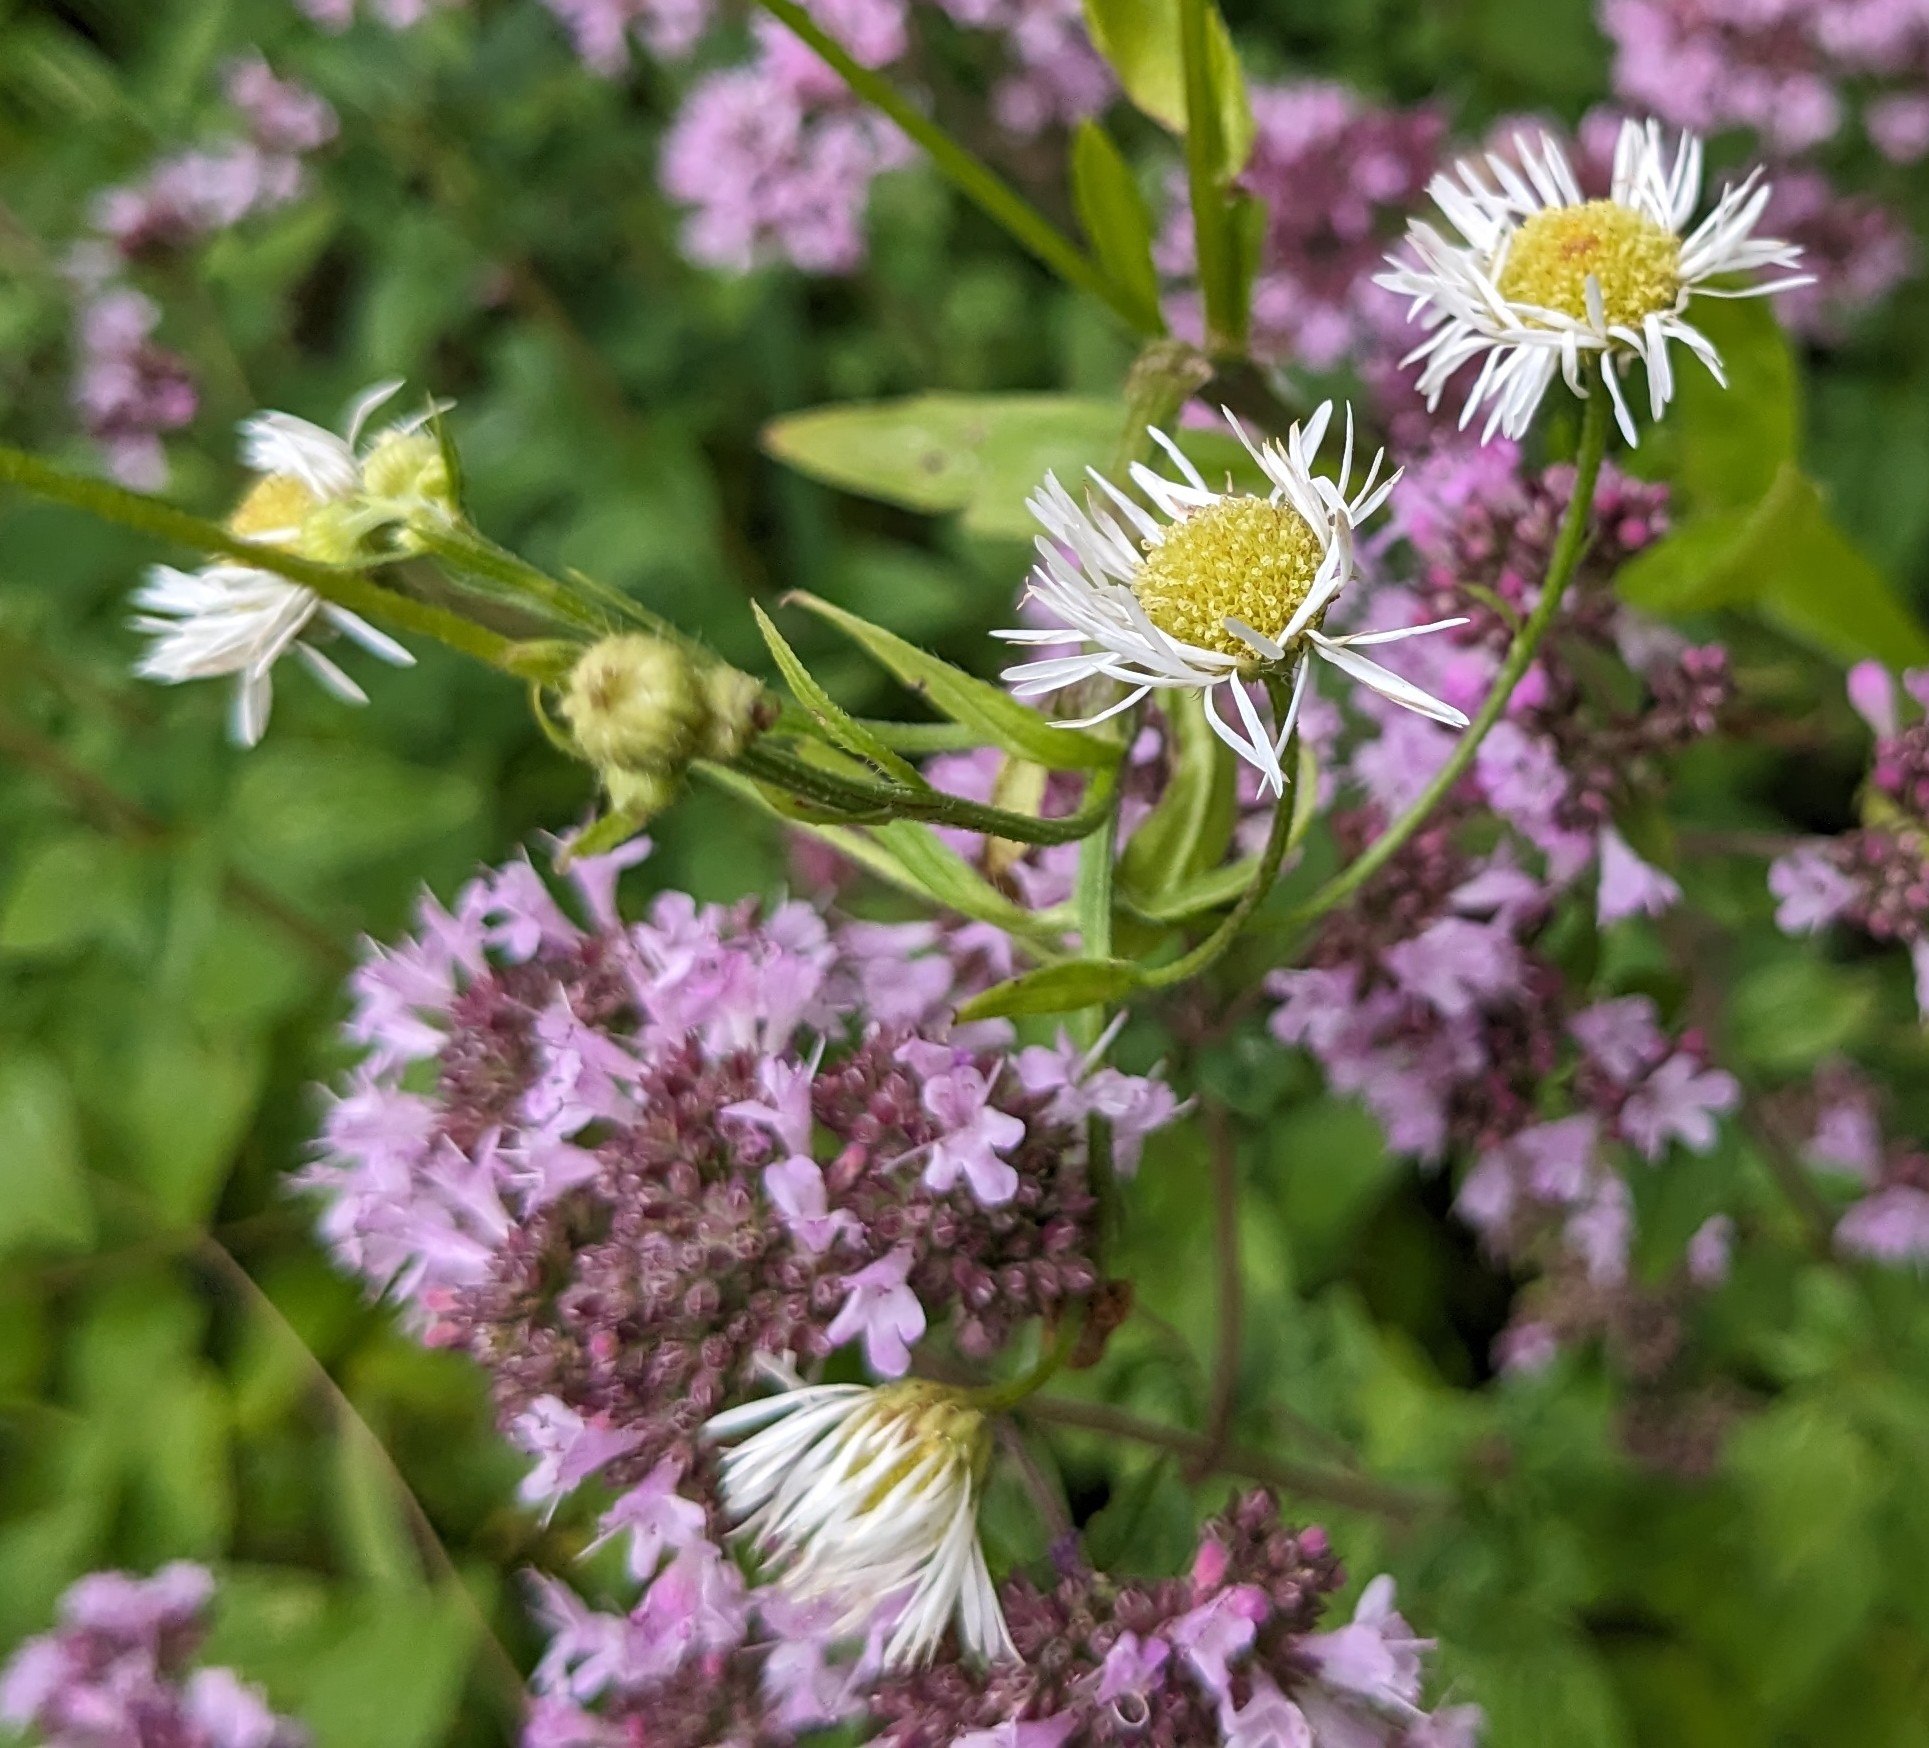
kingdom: Plantae
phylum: Tracheophyta
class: Magnoliopsida
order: Asterales
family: Asteraceae
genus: Erigeron
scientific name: Erigeron annuus
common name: Smalstråle
